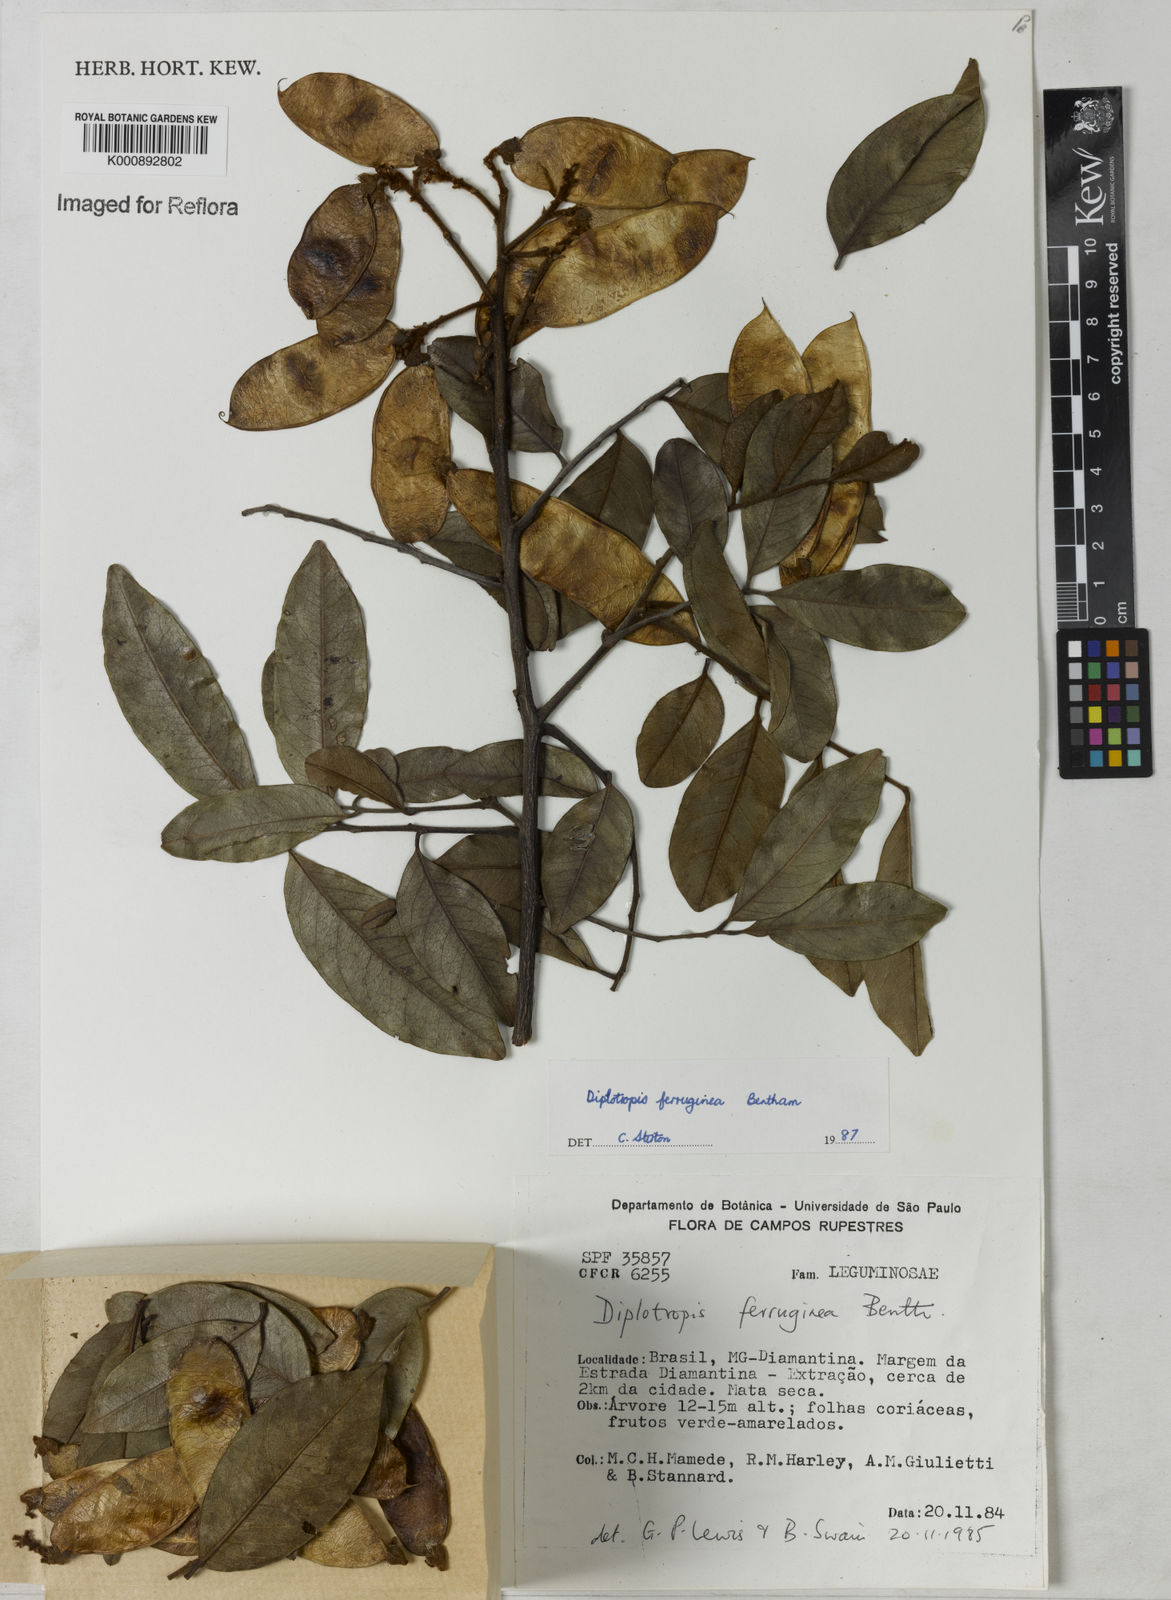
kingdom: Plantae
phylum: Tracheophyta
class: Magnoliopsida
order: Fabales
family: Fabaceae
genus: Diplotropis
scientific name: Diplotropis ferruginea
